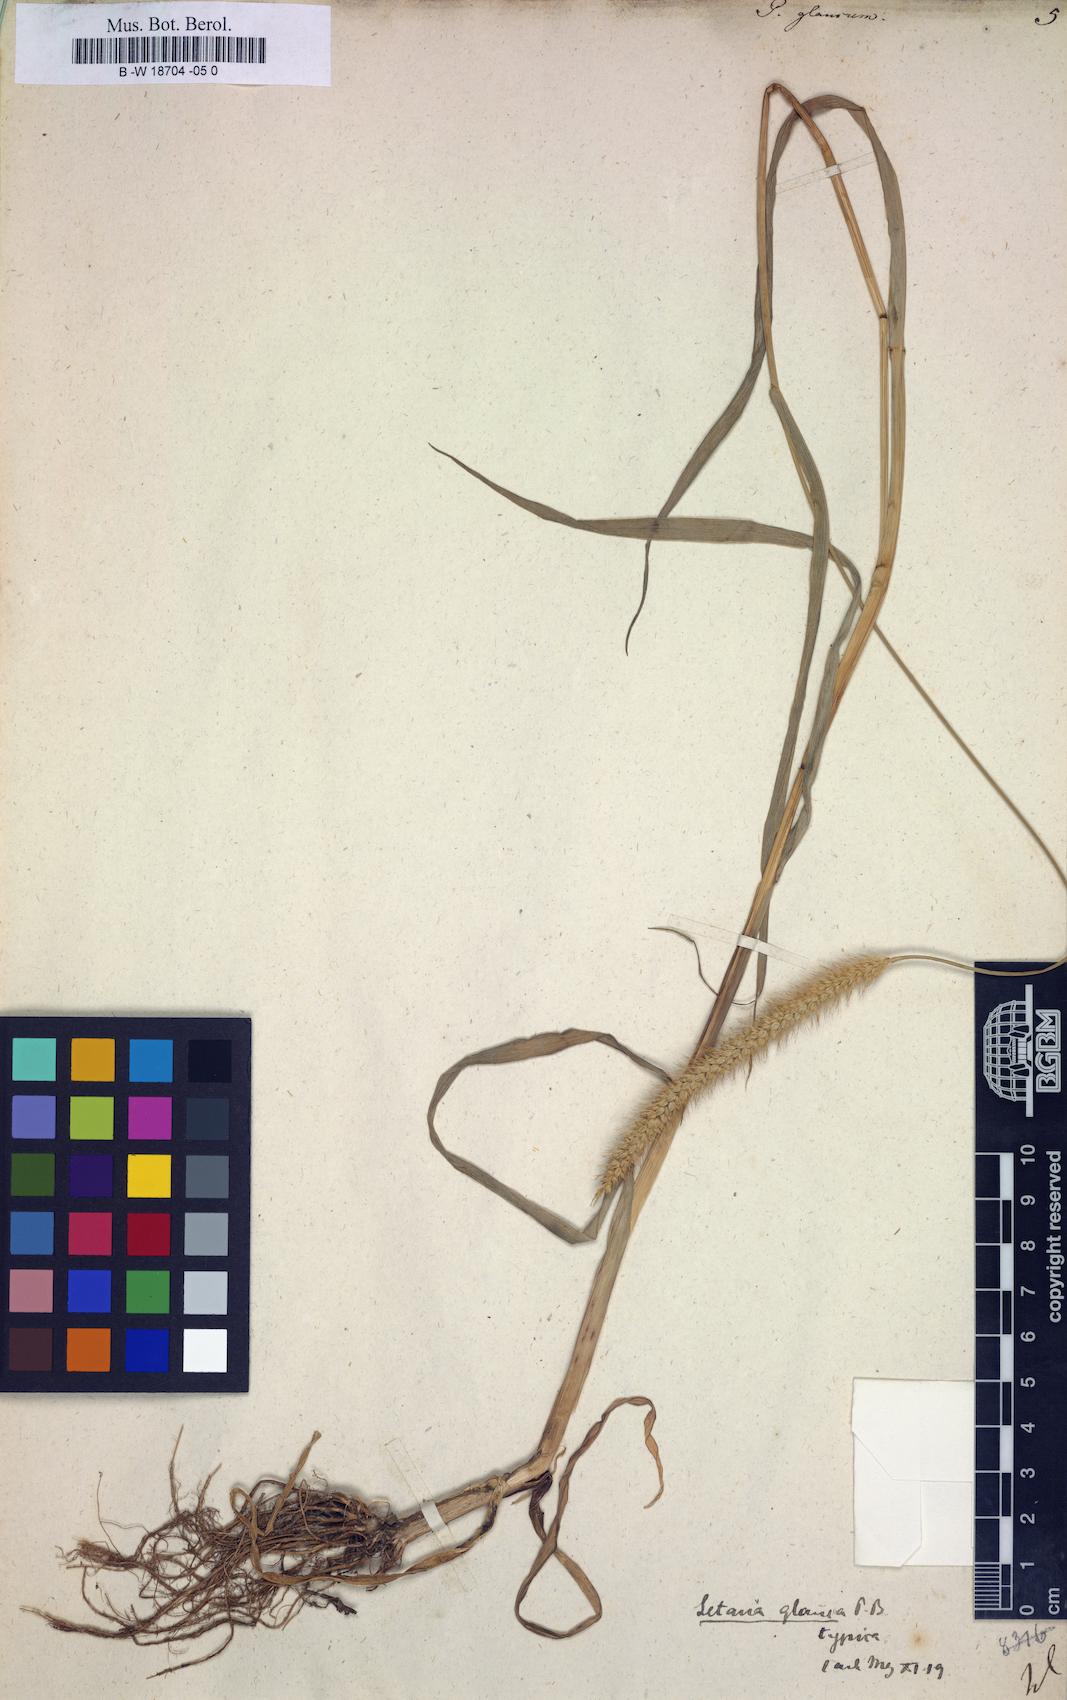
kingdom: Plantae
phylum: Tracheophyta
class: Liliopsida
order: Poales
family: Poaceae
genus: Panicum
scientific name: Panicum glaucum
